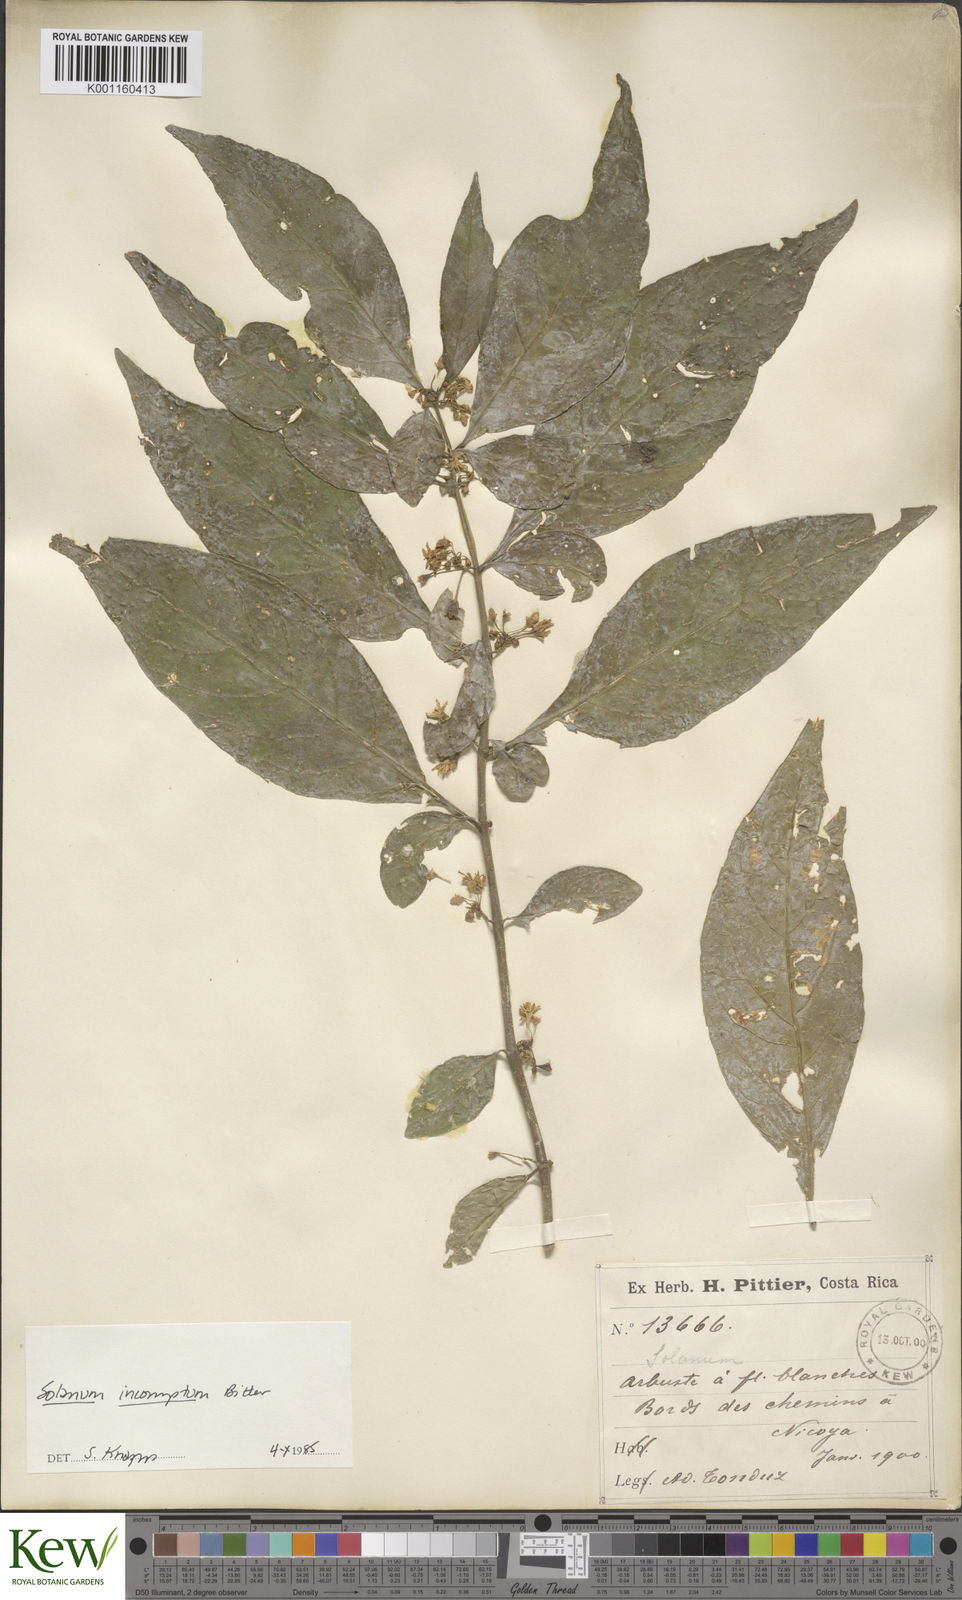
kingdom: Plantae
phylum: Tracheophyta
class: Magnoliopsida
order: Solanales
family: Solanaceae
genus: Solanum
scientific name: Solanum incomptum
